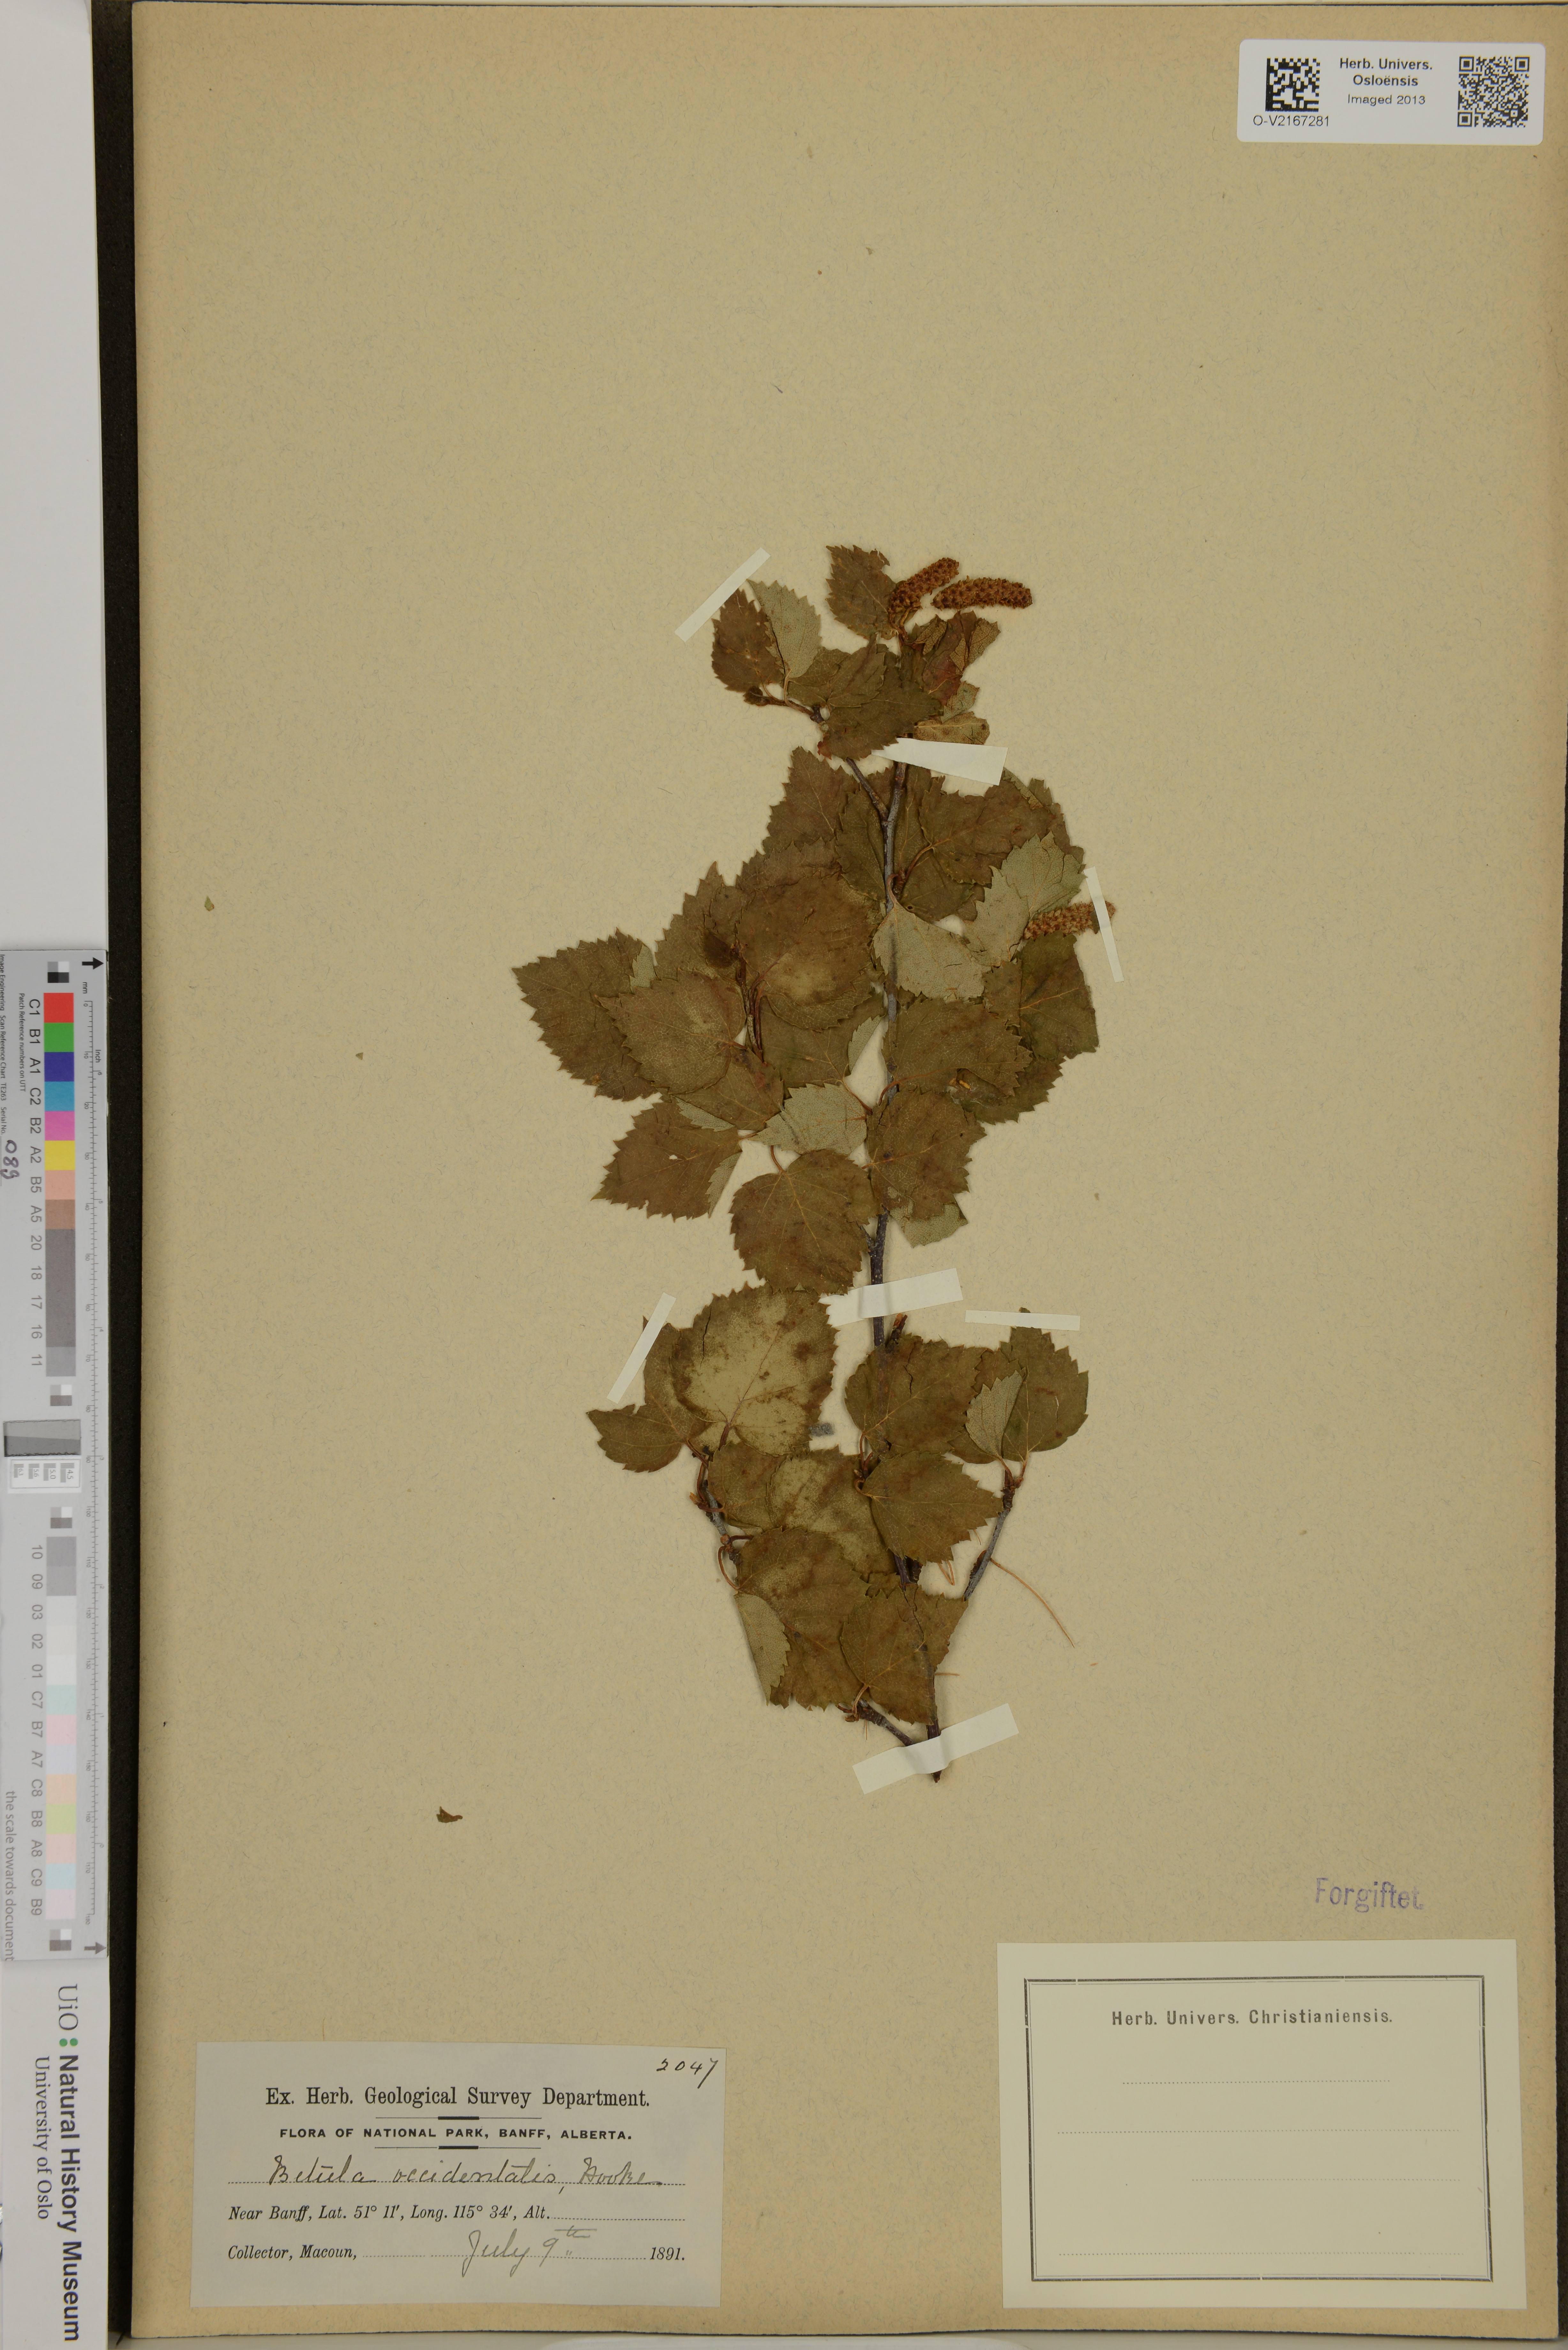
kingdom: Plantae
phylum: Tracheophyta
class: Magnoliopsida
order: Fagales
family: Betulaceae
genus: Betula
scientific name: Betula occidentalis
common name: River birch
